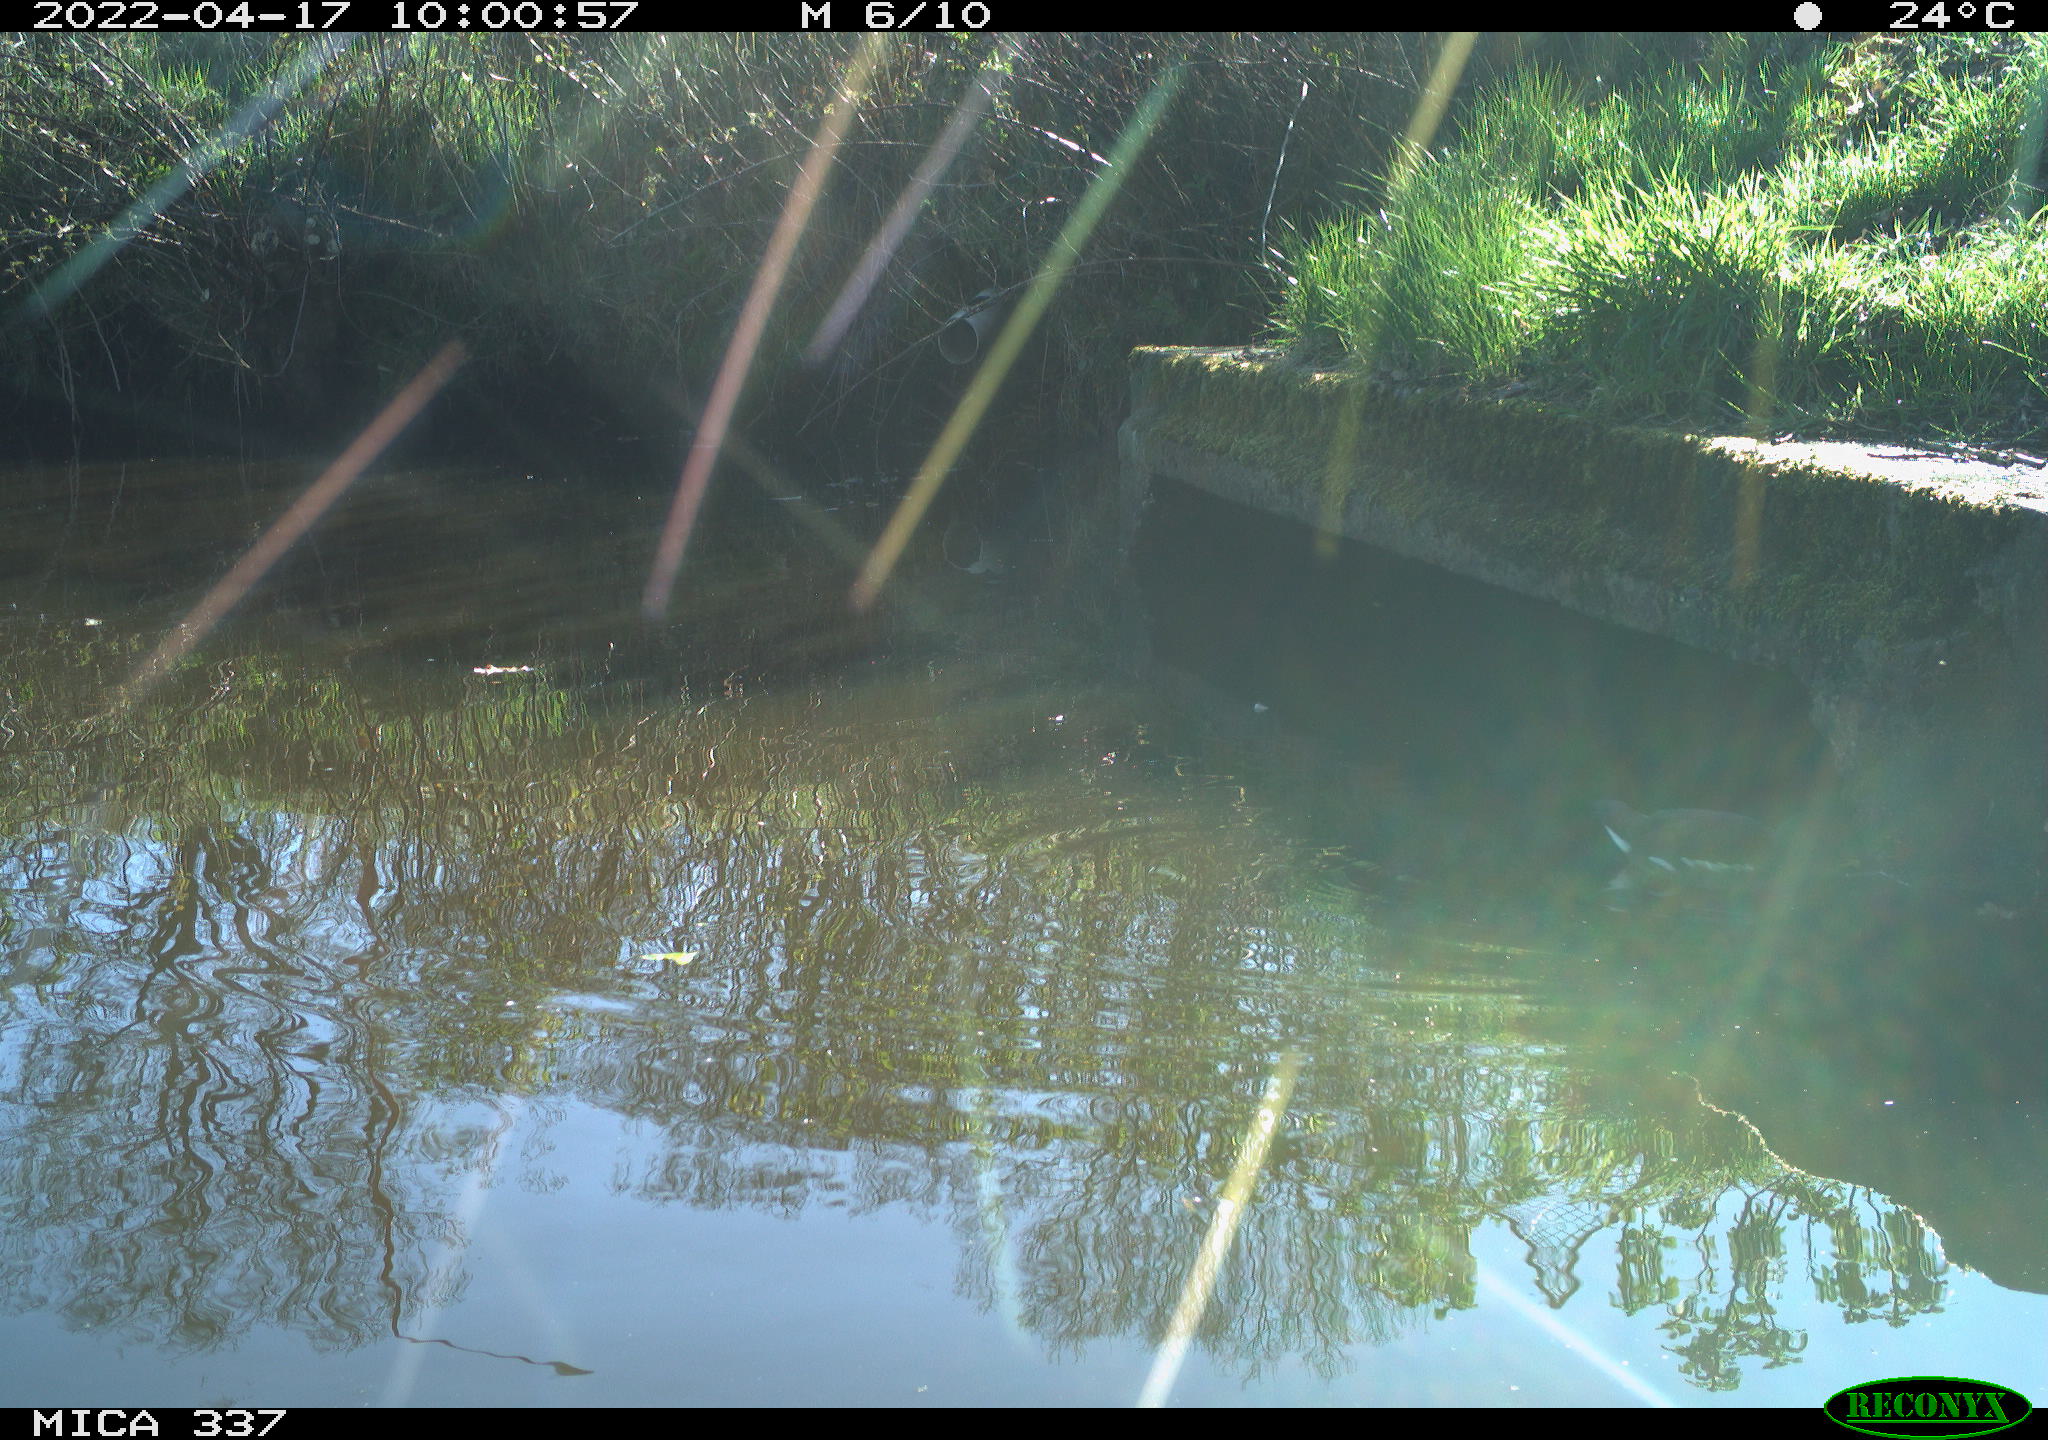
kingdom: Animalia
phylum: Chordata
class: Aves
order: Gruiformes
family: Rallidae
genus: Gallinula
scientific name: Gallinula chloropus
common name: Common moorhen
